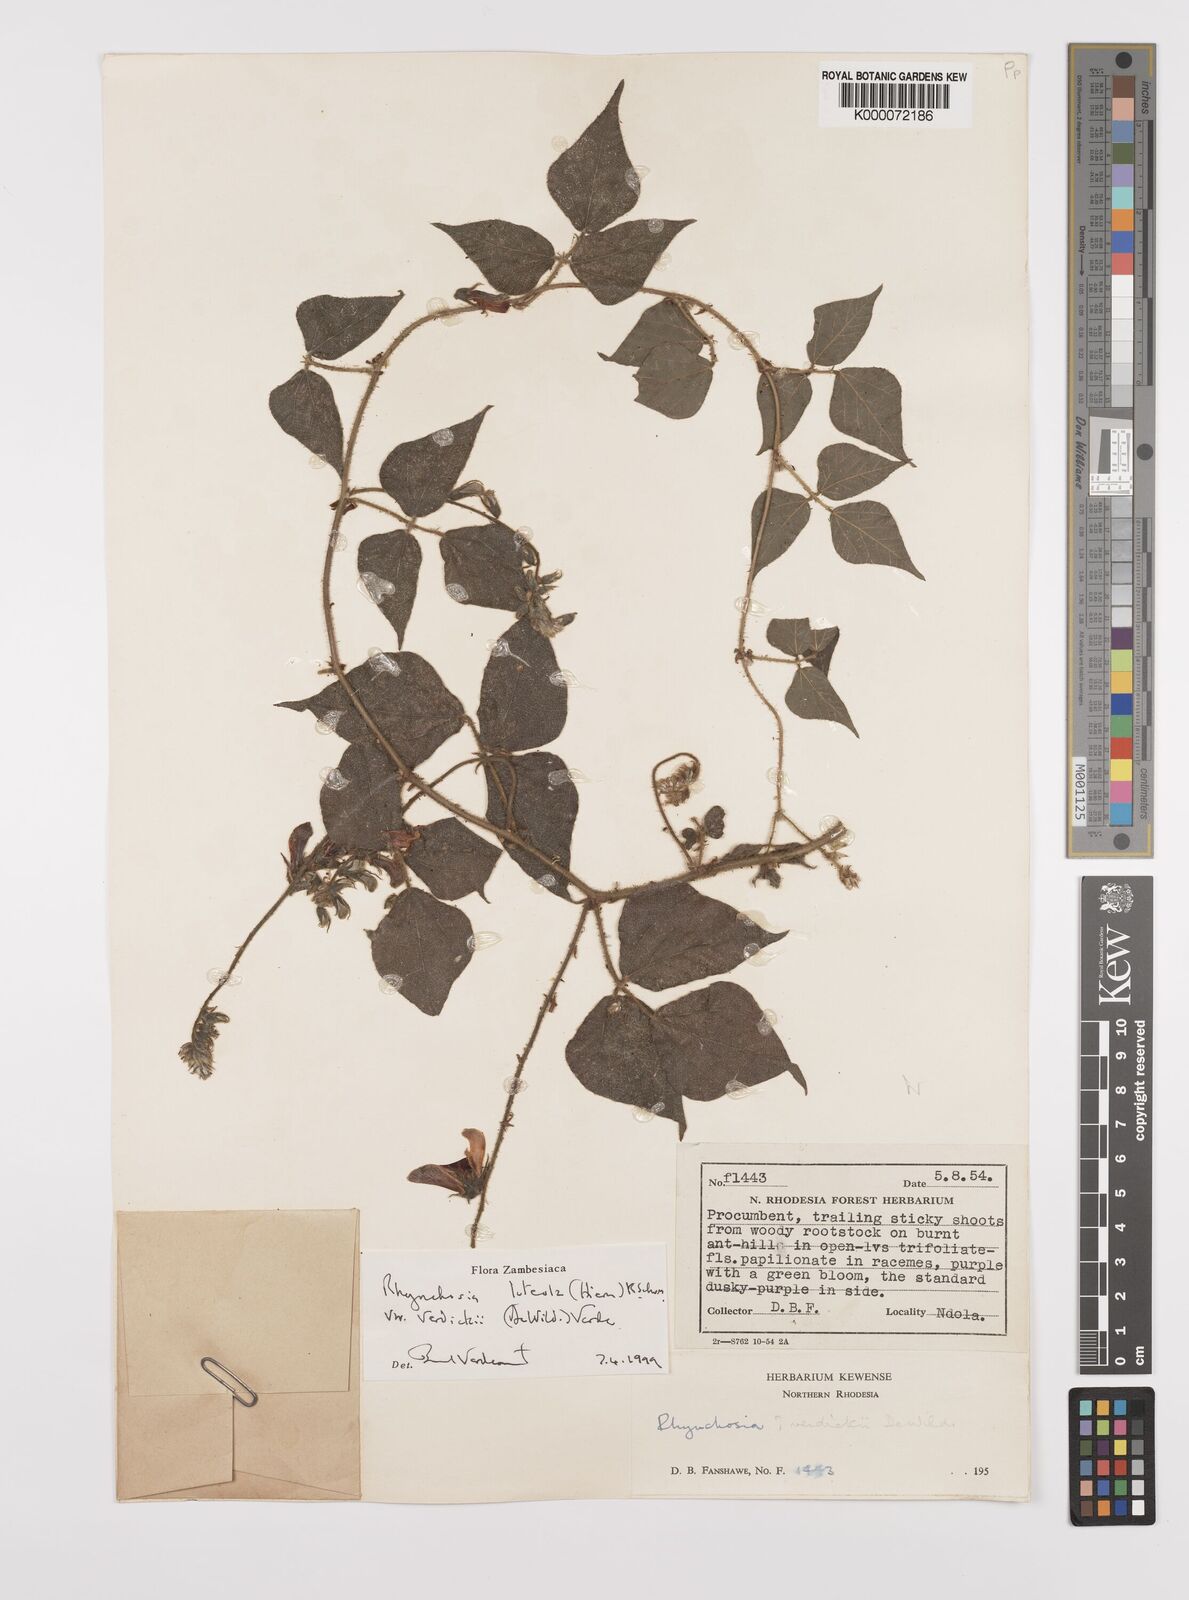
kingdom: Plantae
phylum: Tracheophyta
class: Magnoliopsida
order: Fabales
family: Fabaceae
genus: Rhynchosia
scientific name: Rhynchosia luteola
